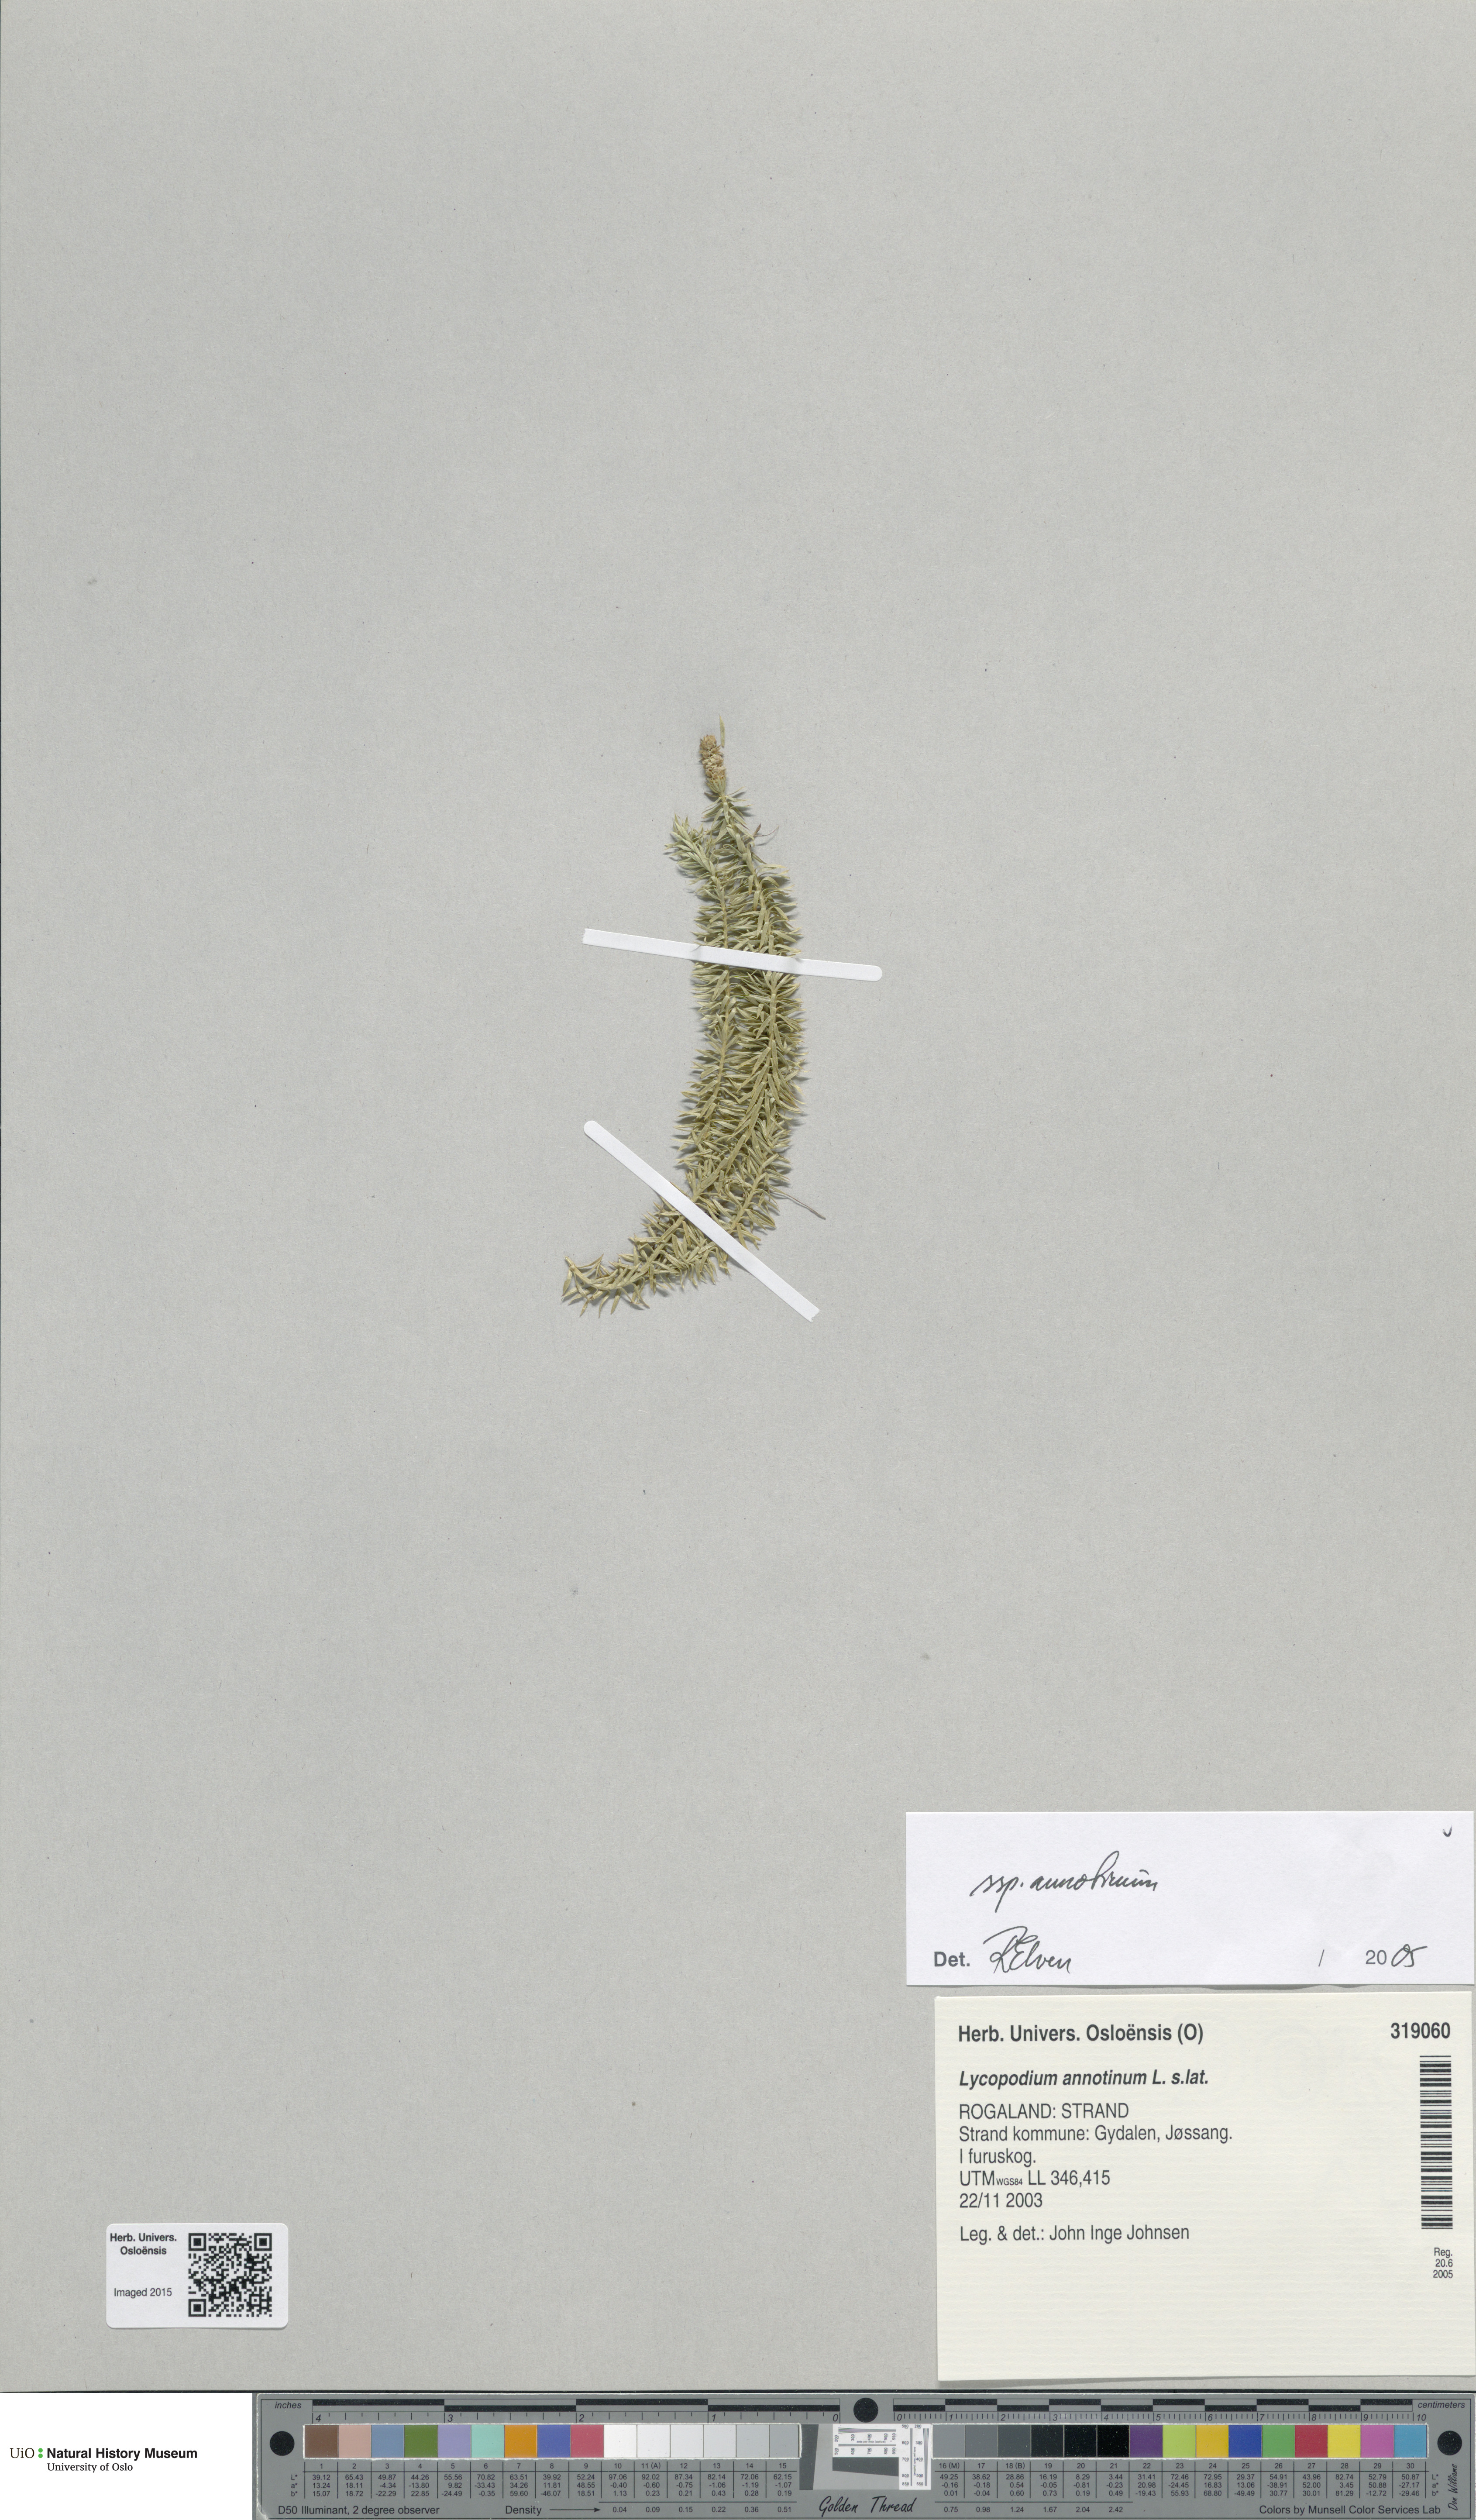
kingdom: Plantae
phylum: Tracheophyta
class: Lycopodiopsida
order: Lycopodiales
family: Lycopodiaceae
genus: Spinulum
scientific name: Spinulum annotinum
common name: Interrupted club-moss
